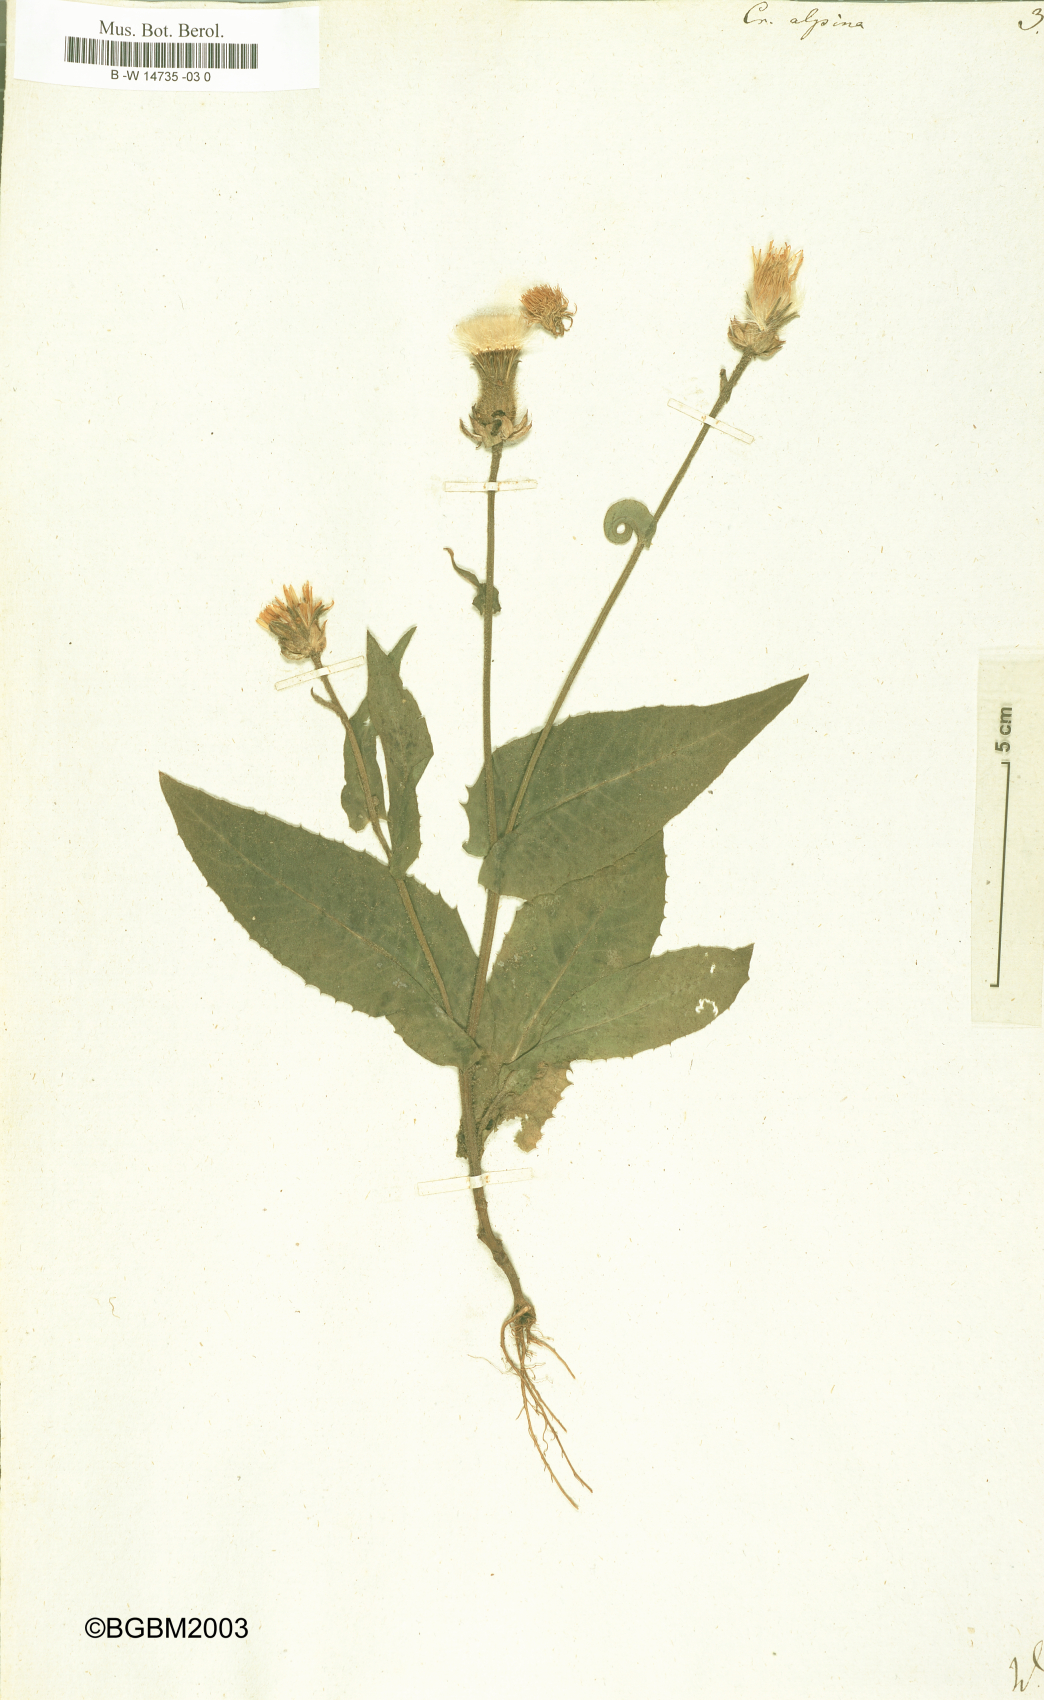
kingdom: Plantae
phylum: Tracheophyta
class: Magnoliopsida
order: Asterales
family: Asteraceae
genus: Crepis
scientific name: Crepis alpina
